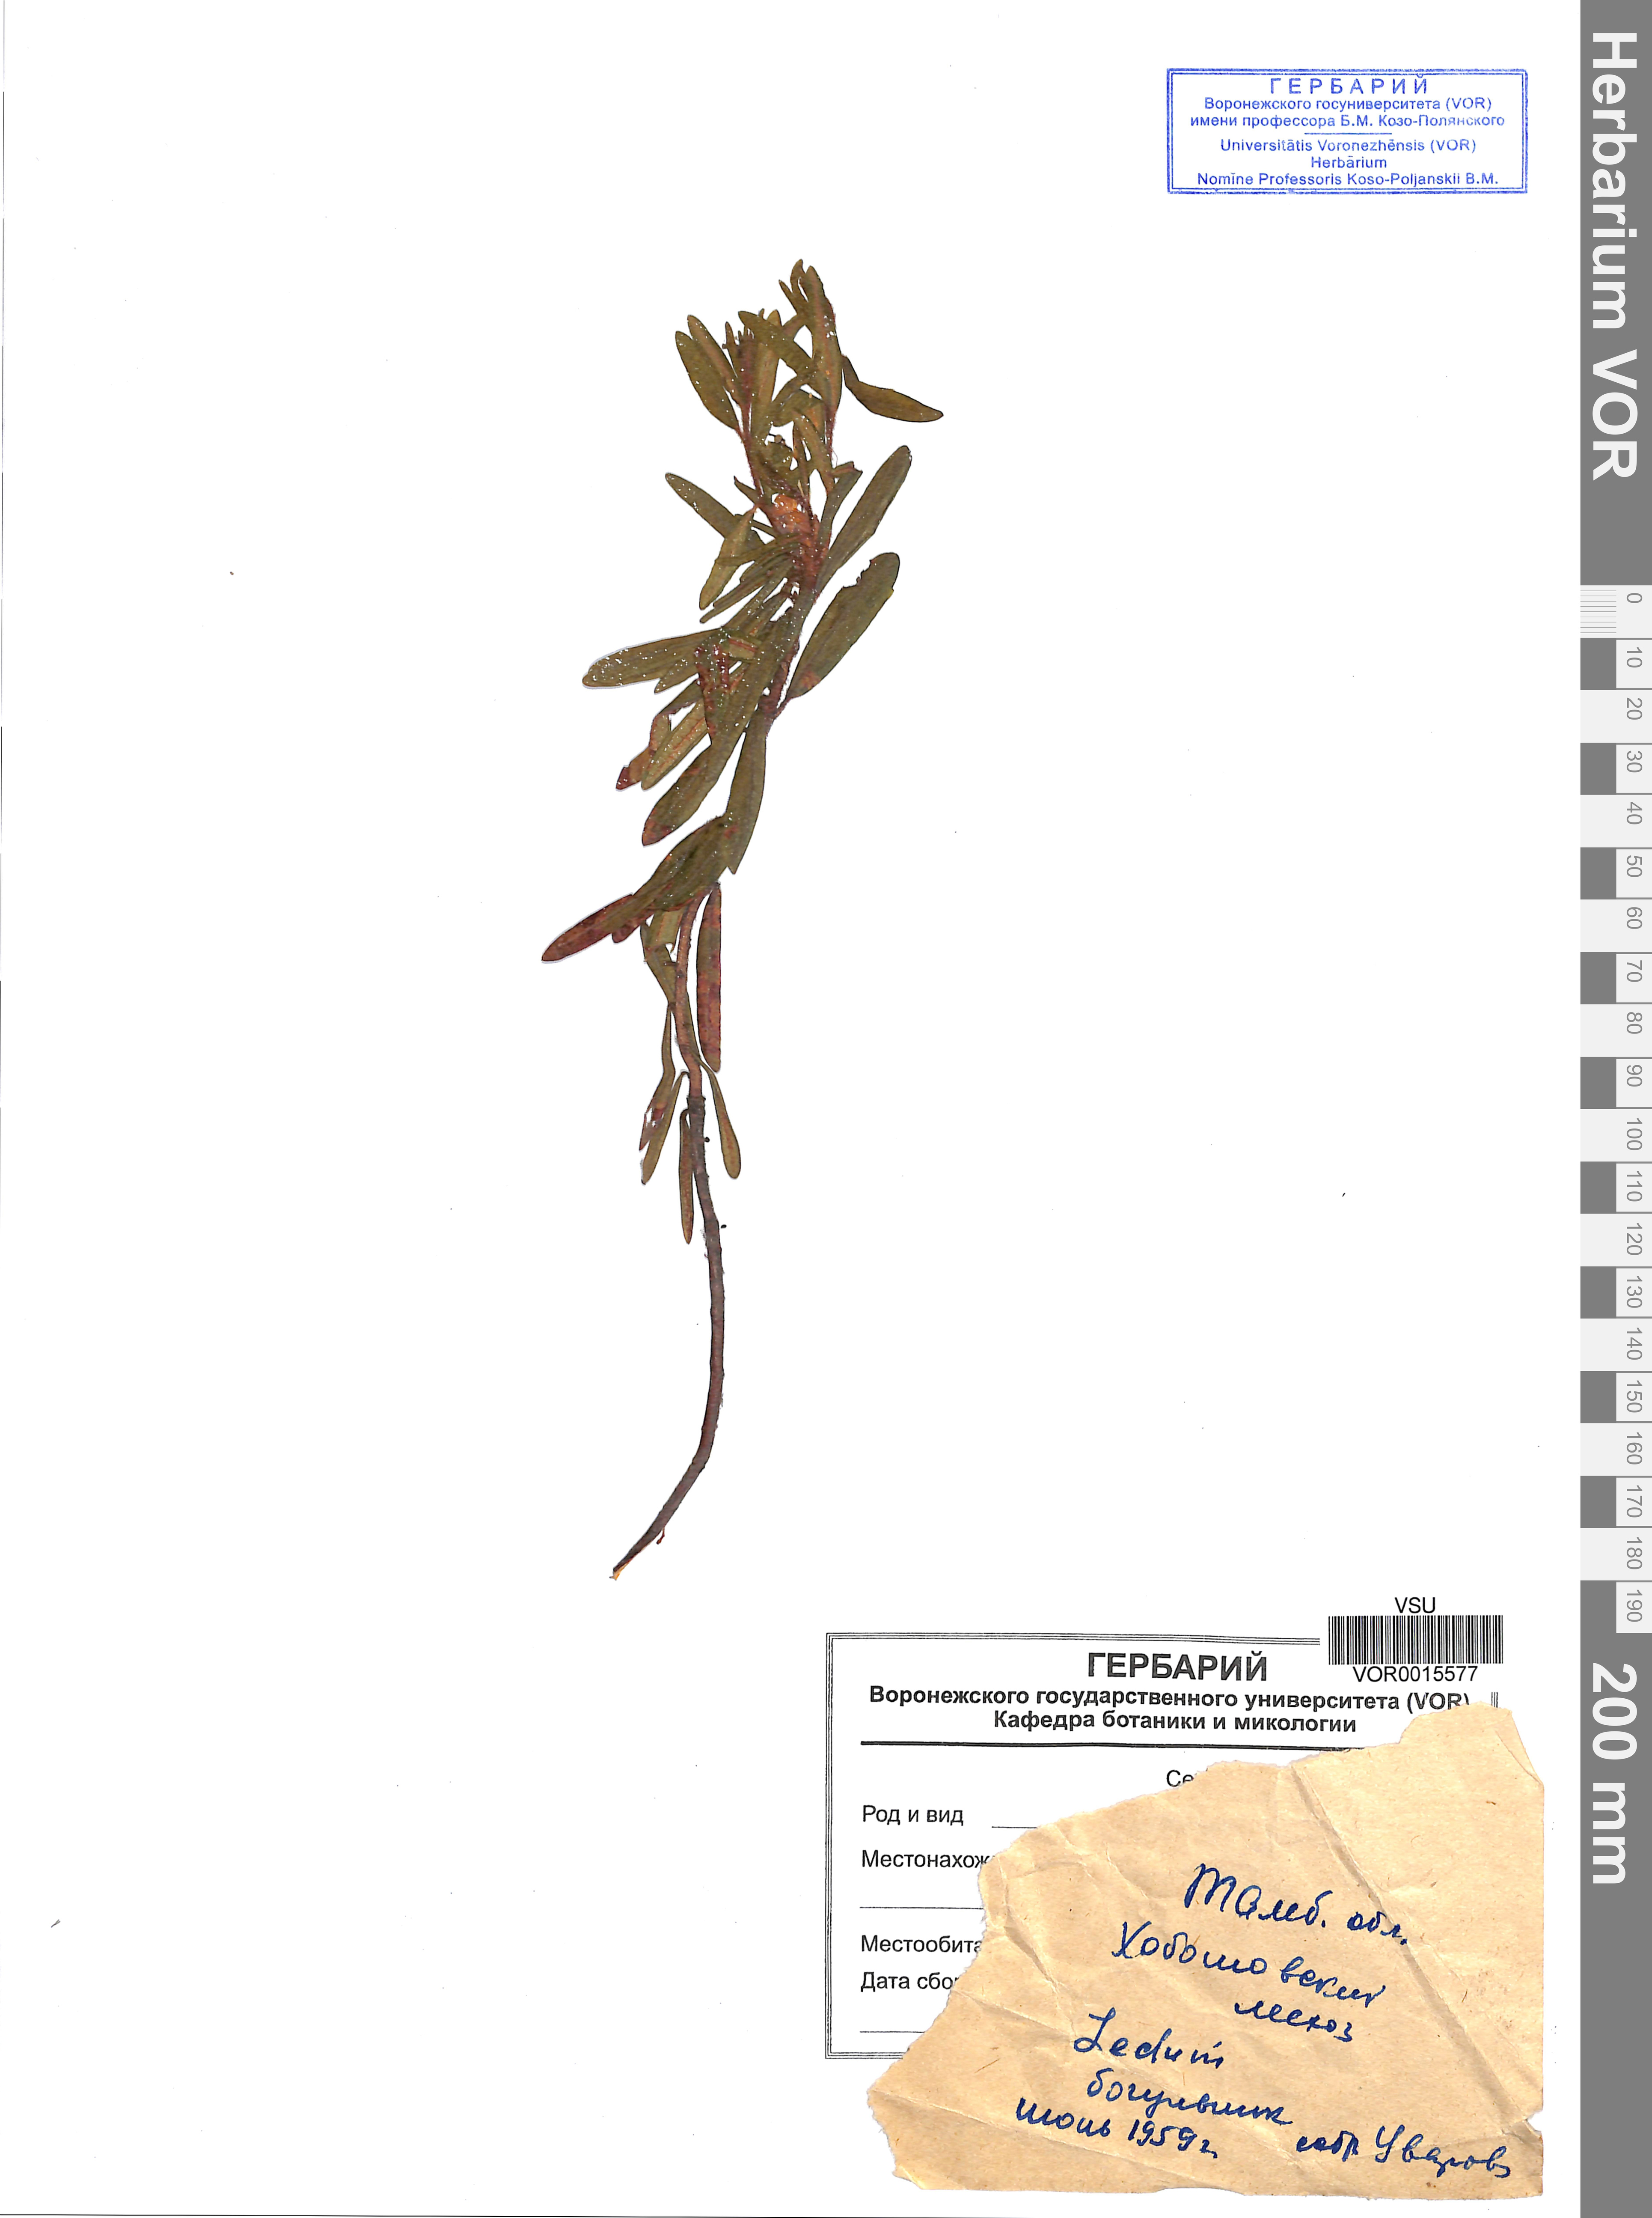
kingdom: Plantae
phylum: Tracheophyta
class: Magnoliopsida
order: Ericales
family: Ericaceae
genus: Rhododendron
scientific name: Rhododendron tomentosum
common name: Marsh labrador tea
